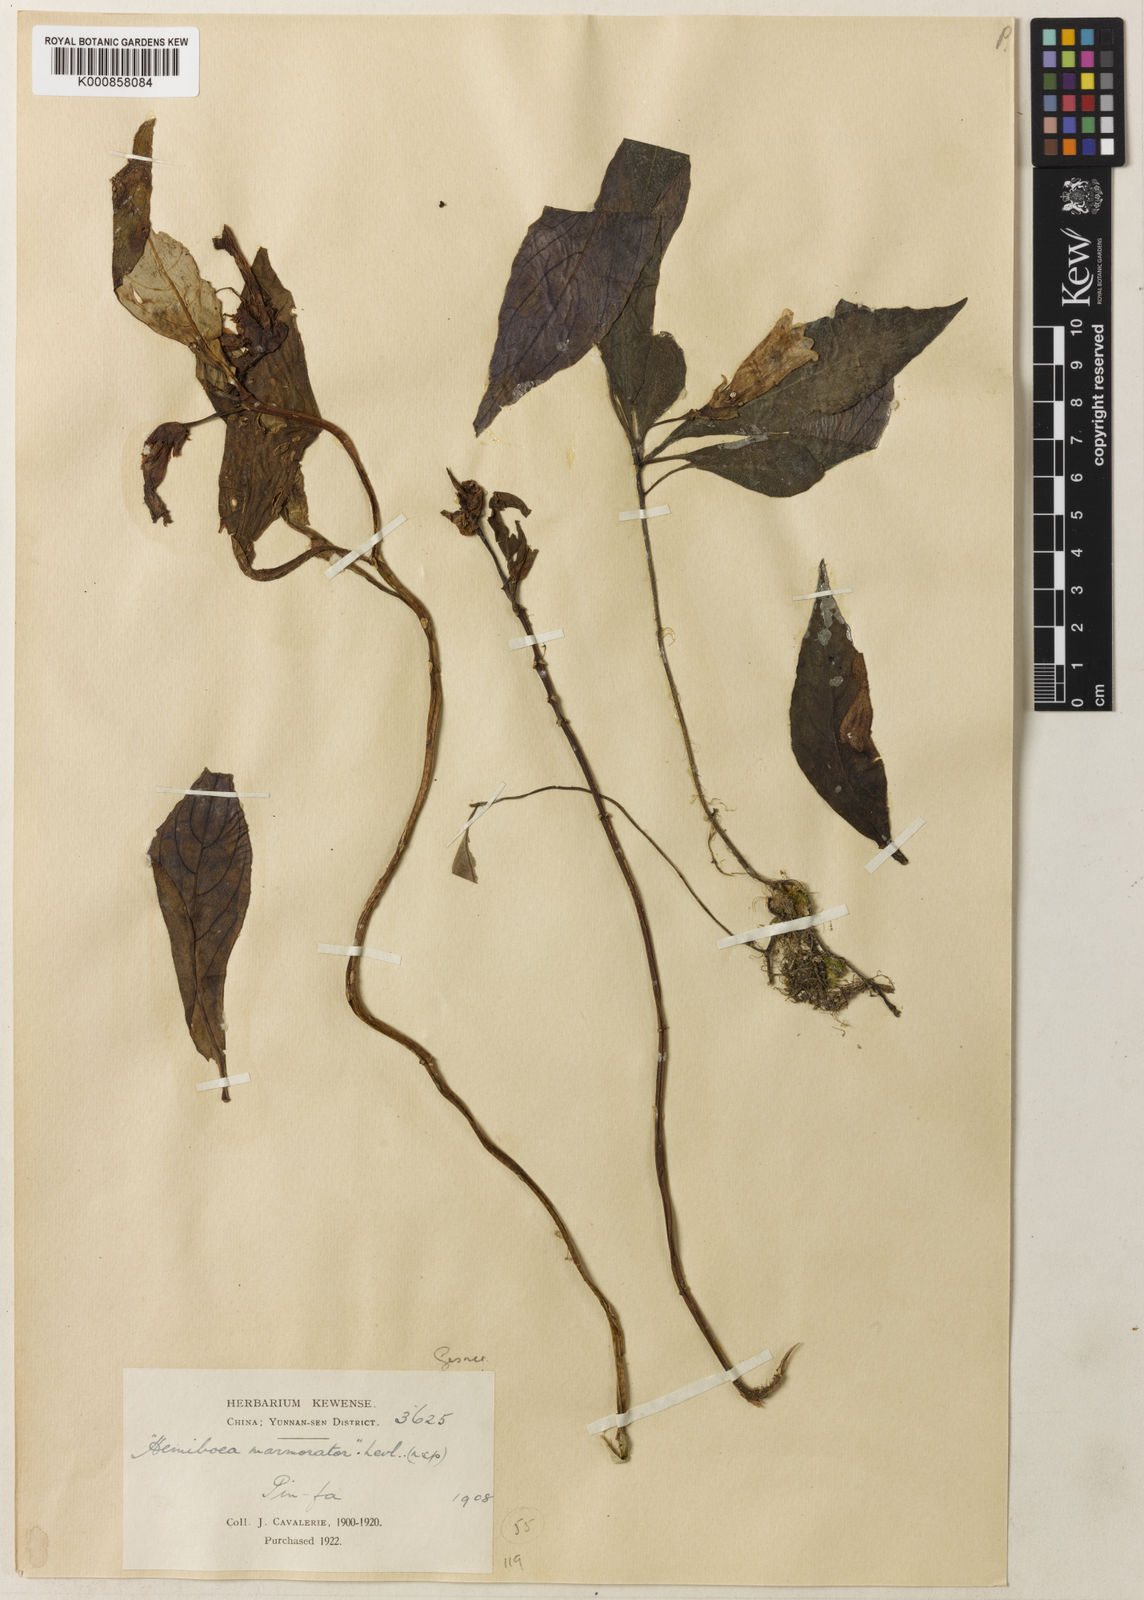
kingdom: Plantae
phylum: Tracheophyta
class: Magnoliopsida
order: Lamiales
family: Gesneriaceae
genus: Hemiboea
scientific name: Hemiboea subcapitata
